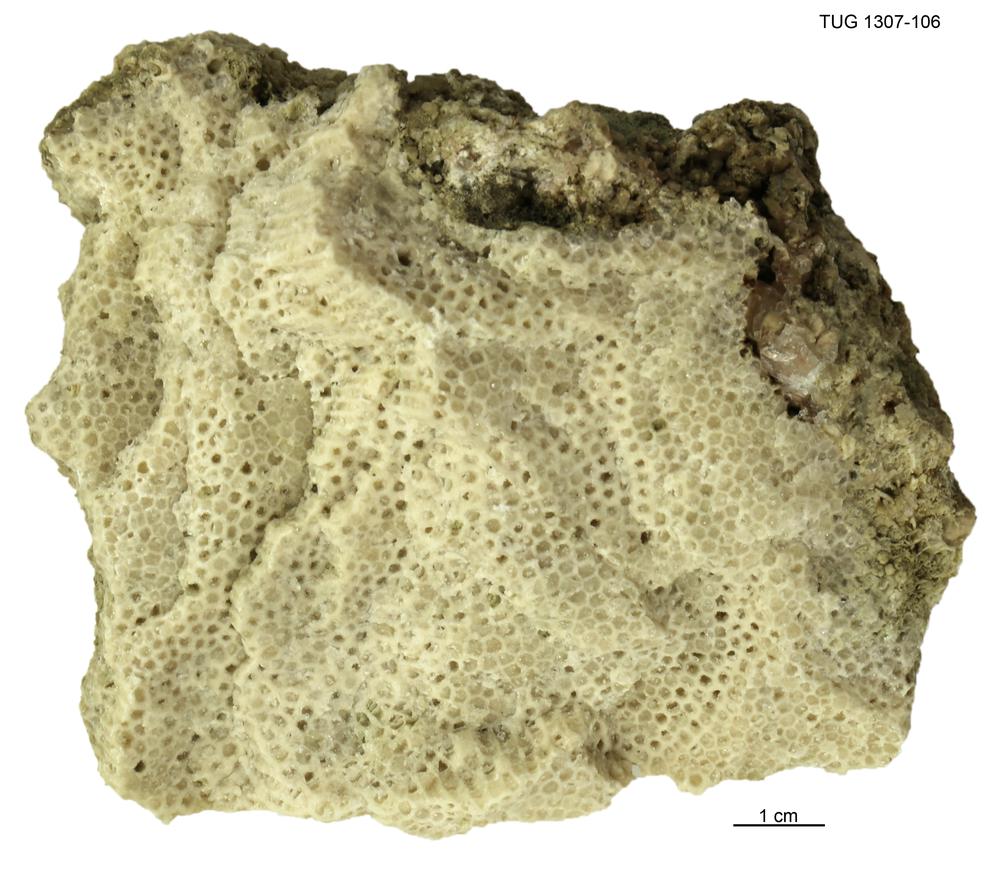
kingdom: Animalia
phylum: Cnidaria
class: Anthozoa
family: Favositidae
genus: Saffordophyllum
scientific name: Saffordophyllum
